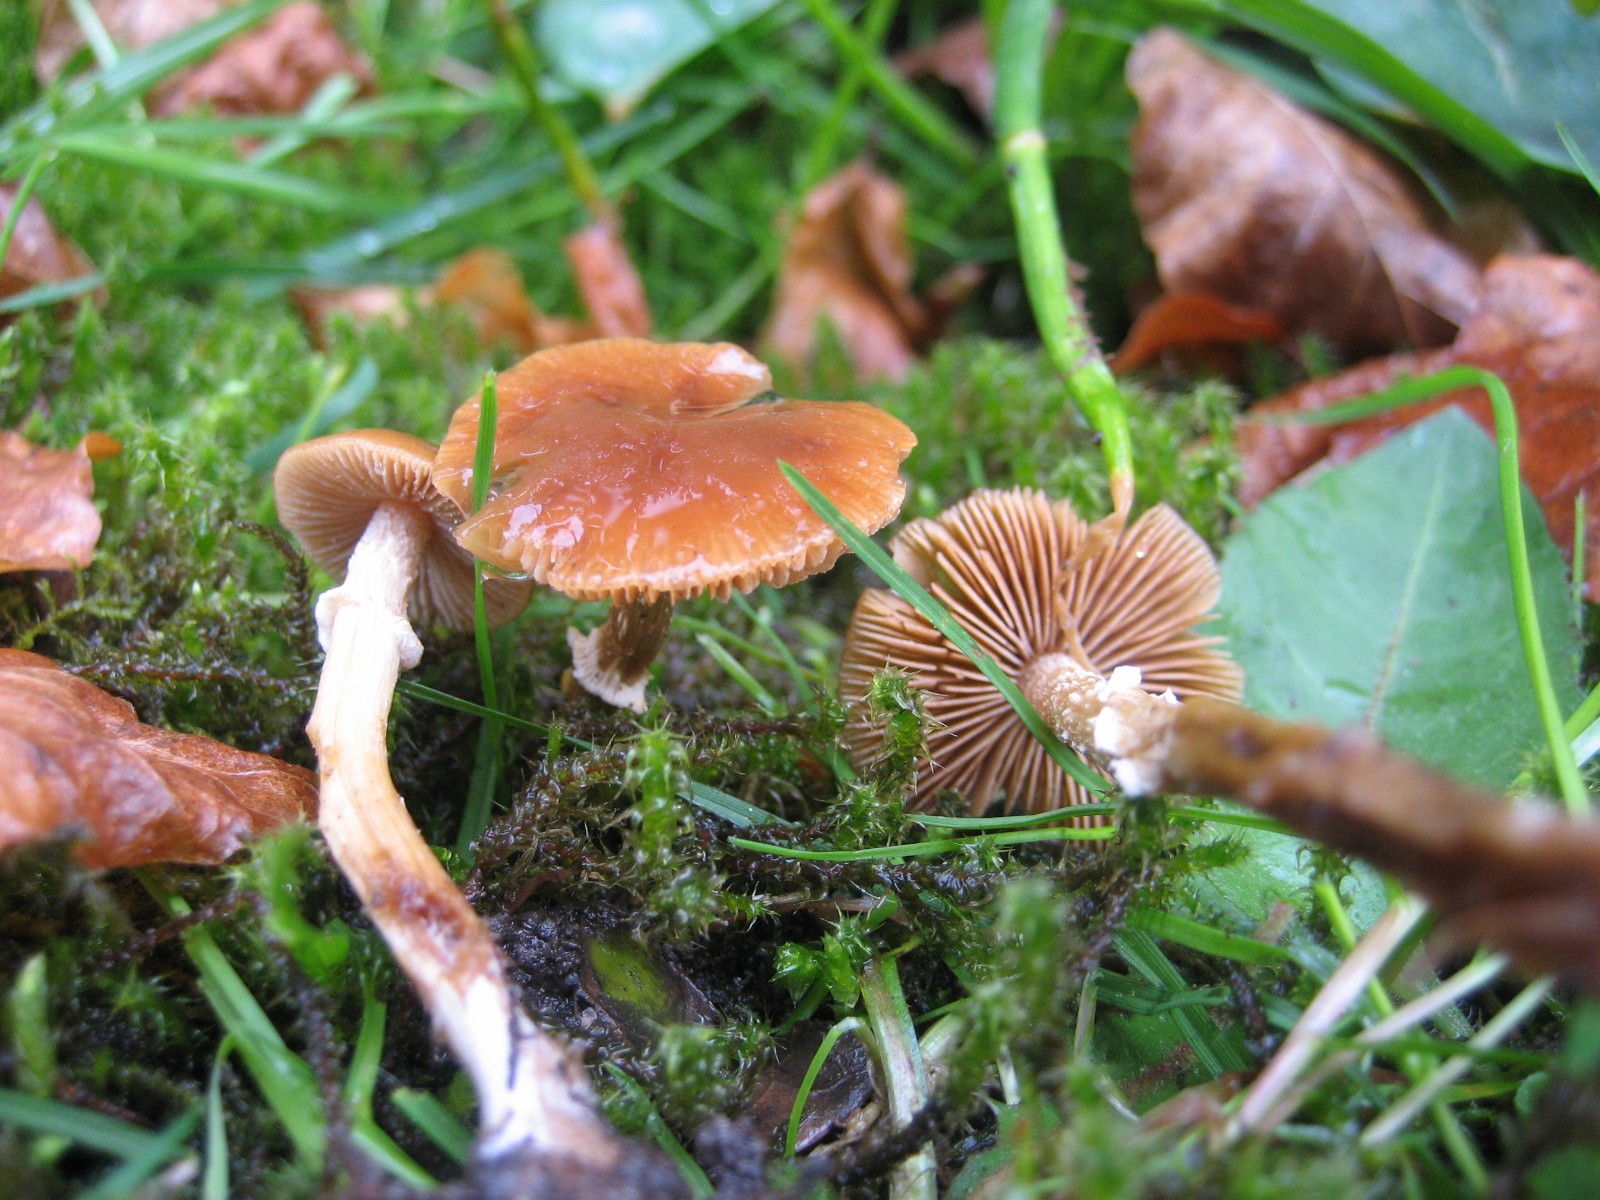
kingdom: Fungi
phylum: Basidiomycota
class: Agaricomycetes
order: Agaricales
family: Bolbitiaceae
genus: Conocybe
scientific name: Conocybe aporos
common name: tidlig dansehat
